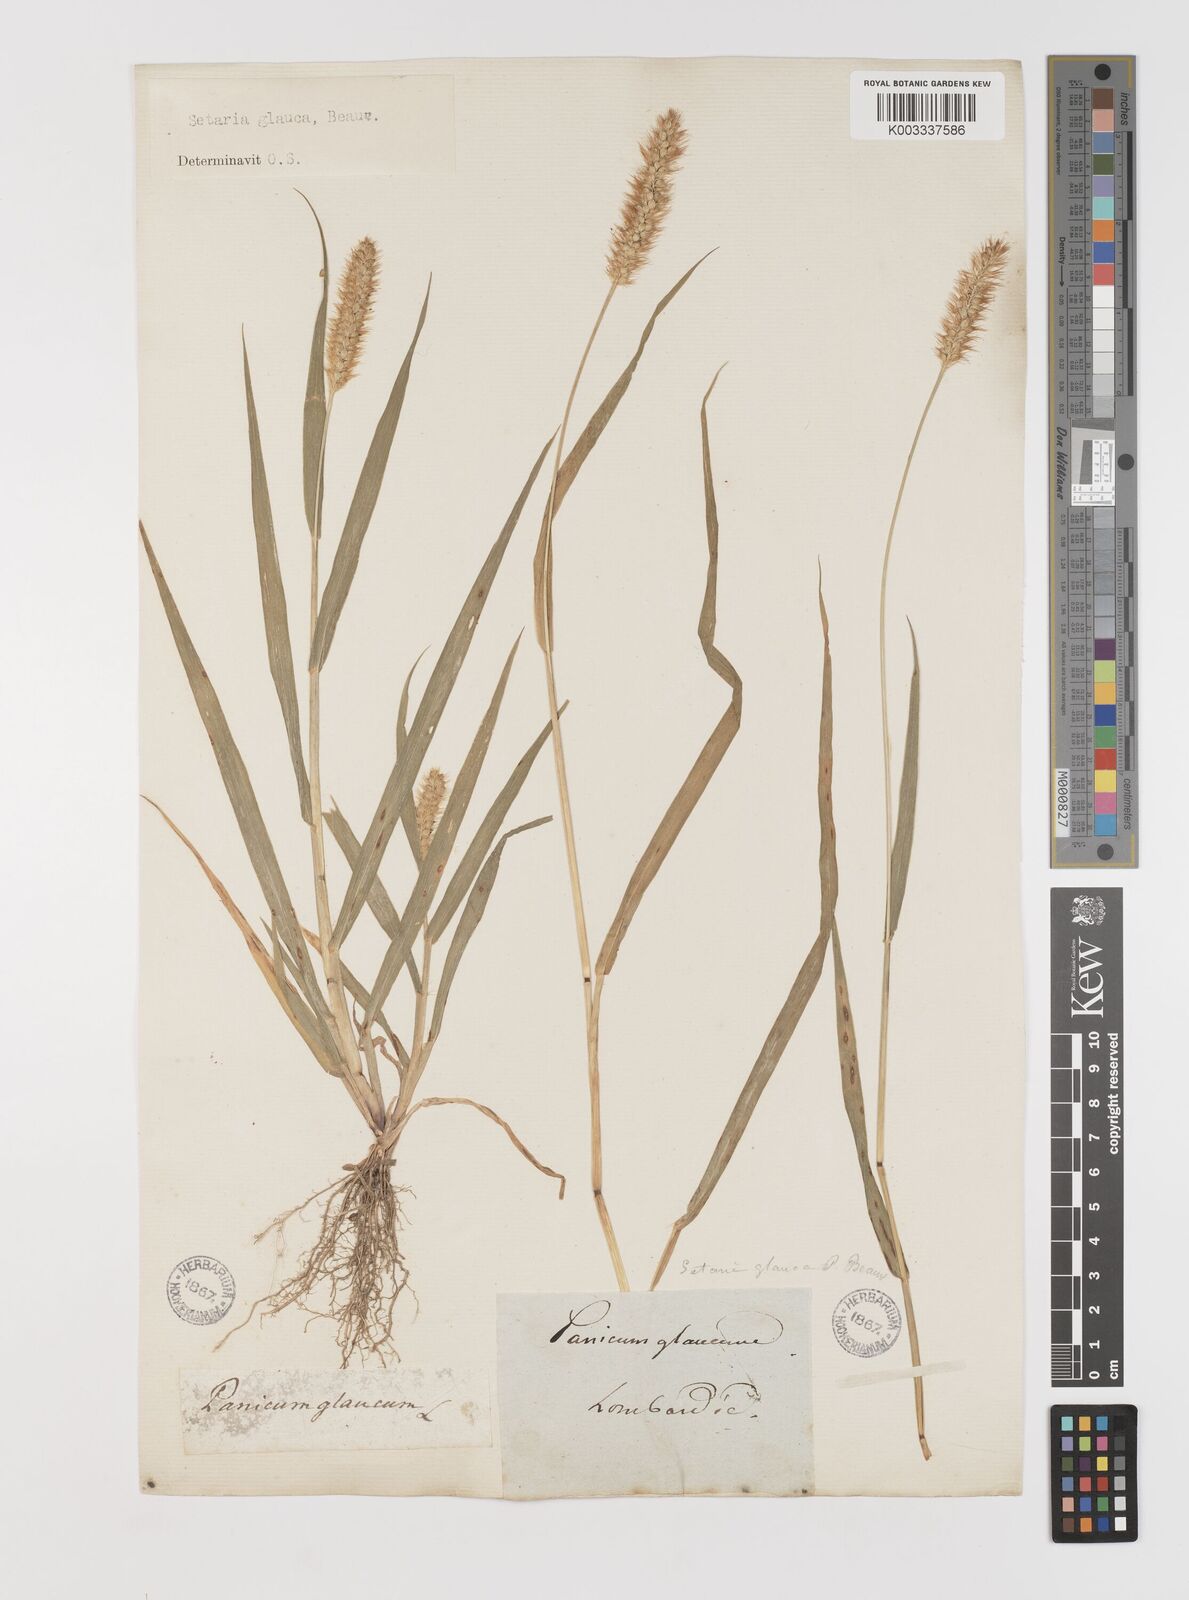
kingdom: Plantae
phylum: Tracheophyta
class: Liliopsida
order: Poales
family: Poaceae
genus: Setaria
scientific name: Setaria pumila
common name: Yellow bristle-grass
